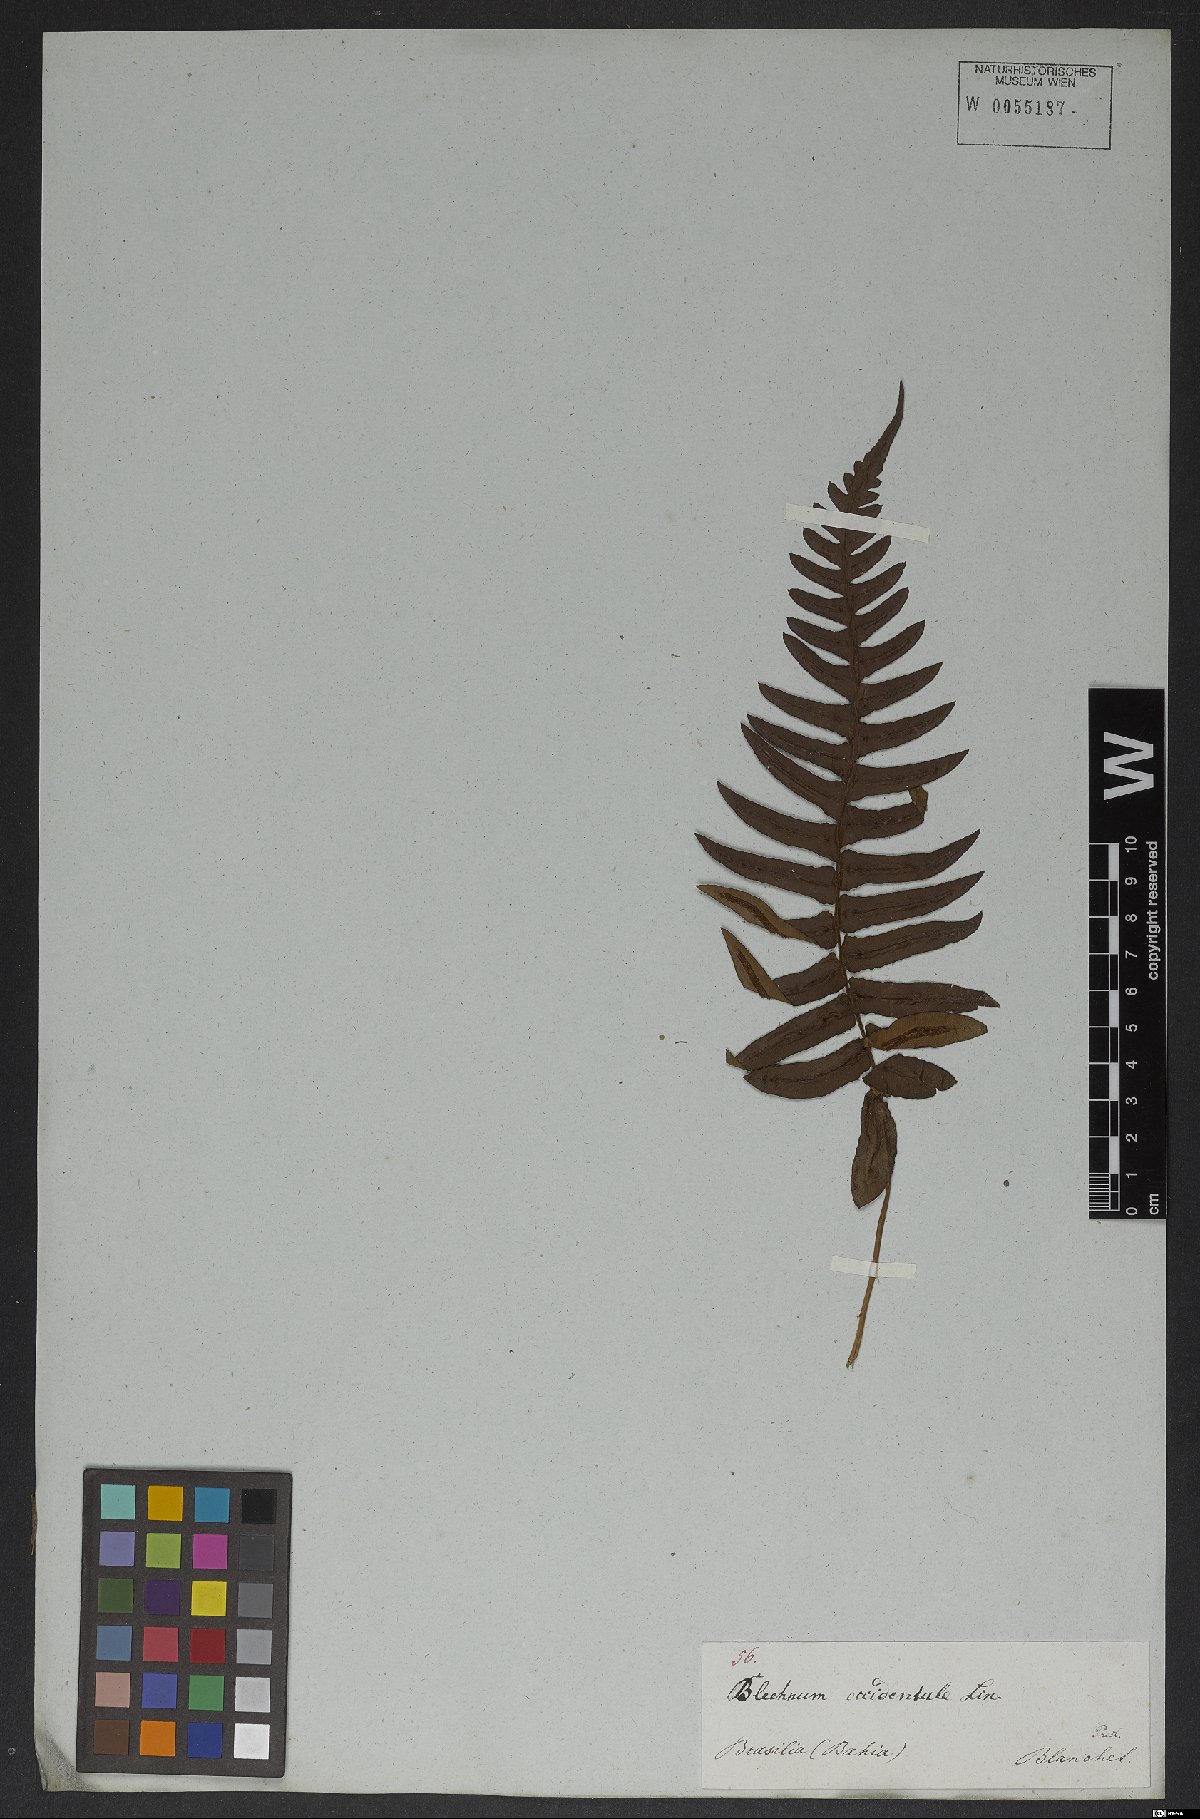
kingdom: Plantae
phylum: Tracheophyta
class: Polypodiopsida
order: Polypodiales
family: Blechnaceae
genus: Blechnum
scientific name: Blechnum occidentale
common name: Hammock fern
